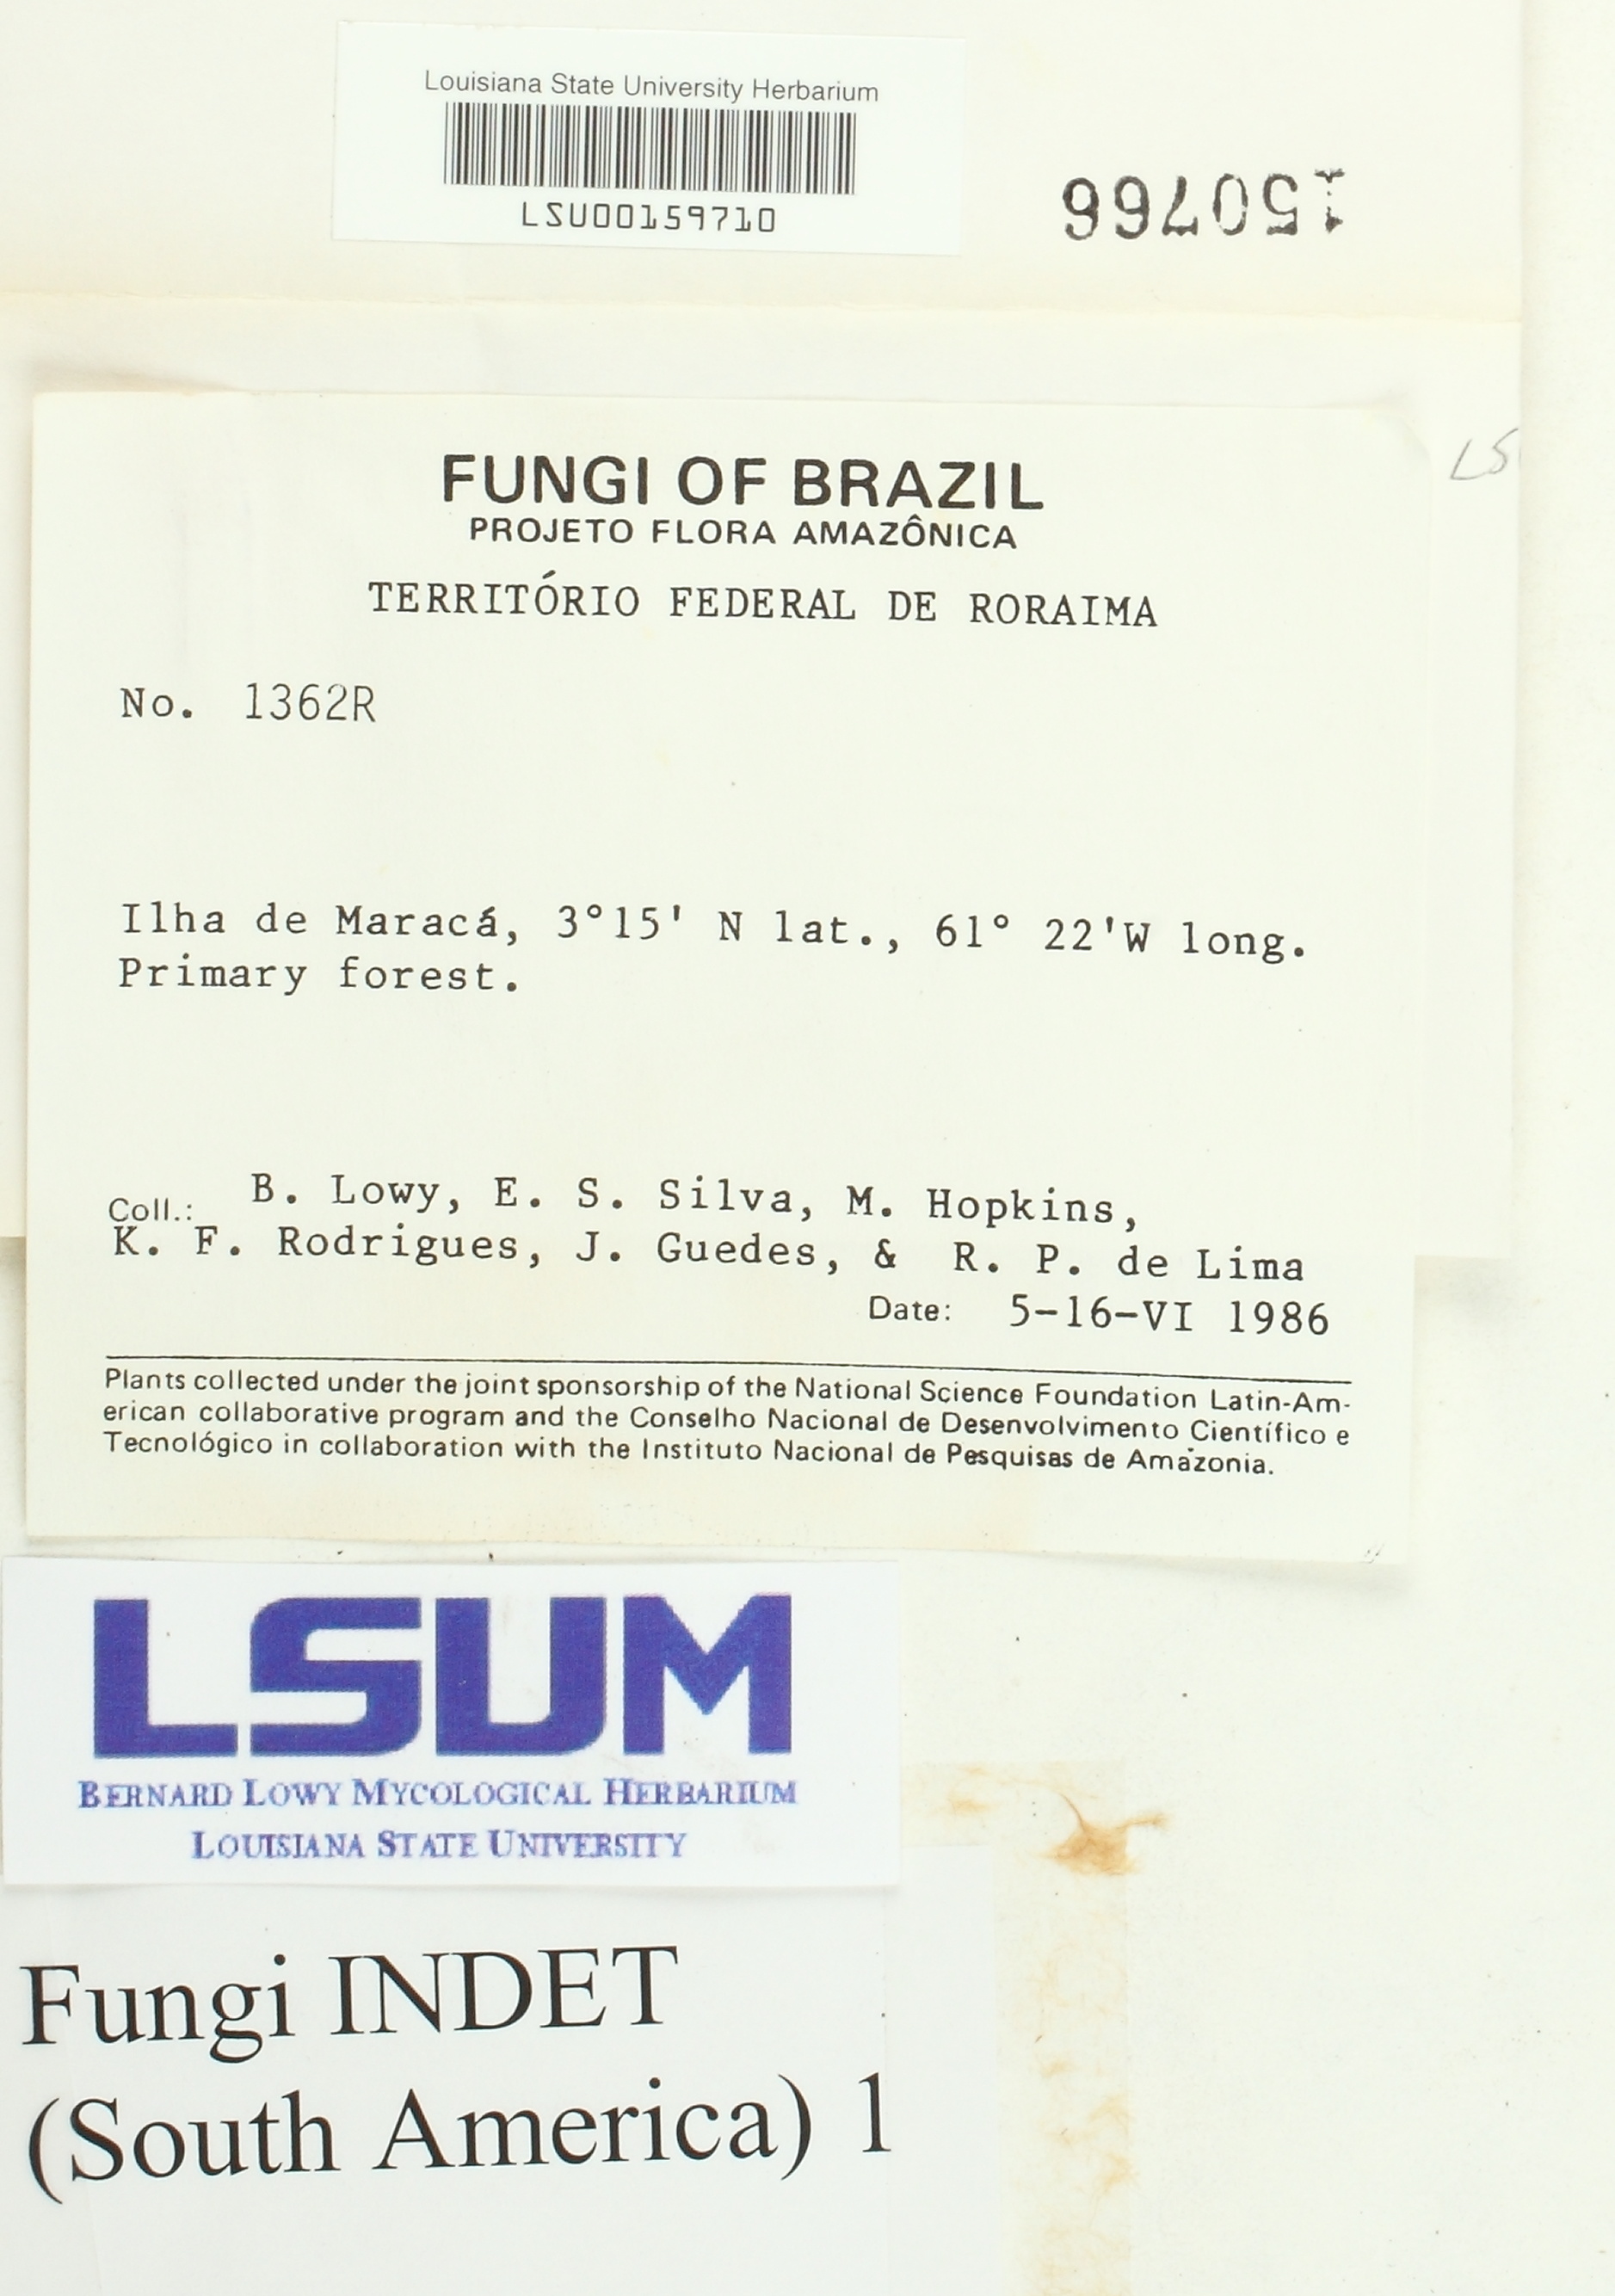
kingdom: Fungi
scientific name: Fungi
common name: Fungi
